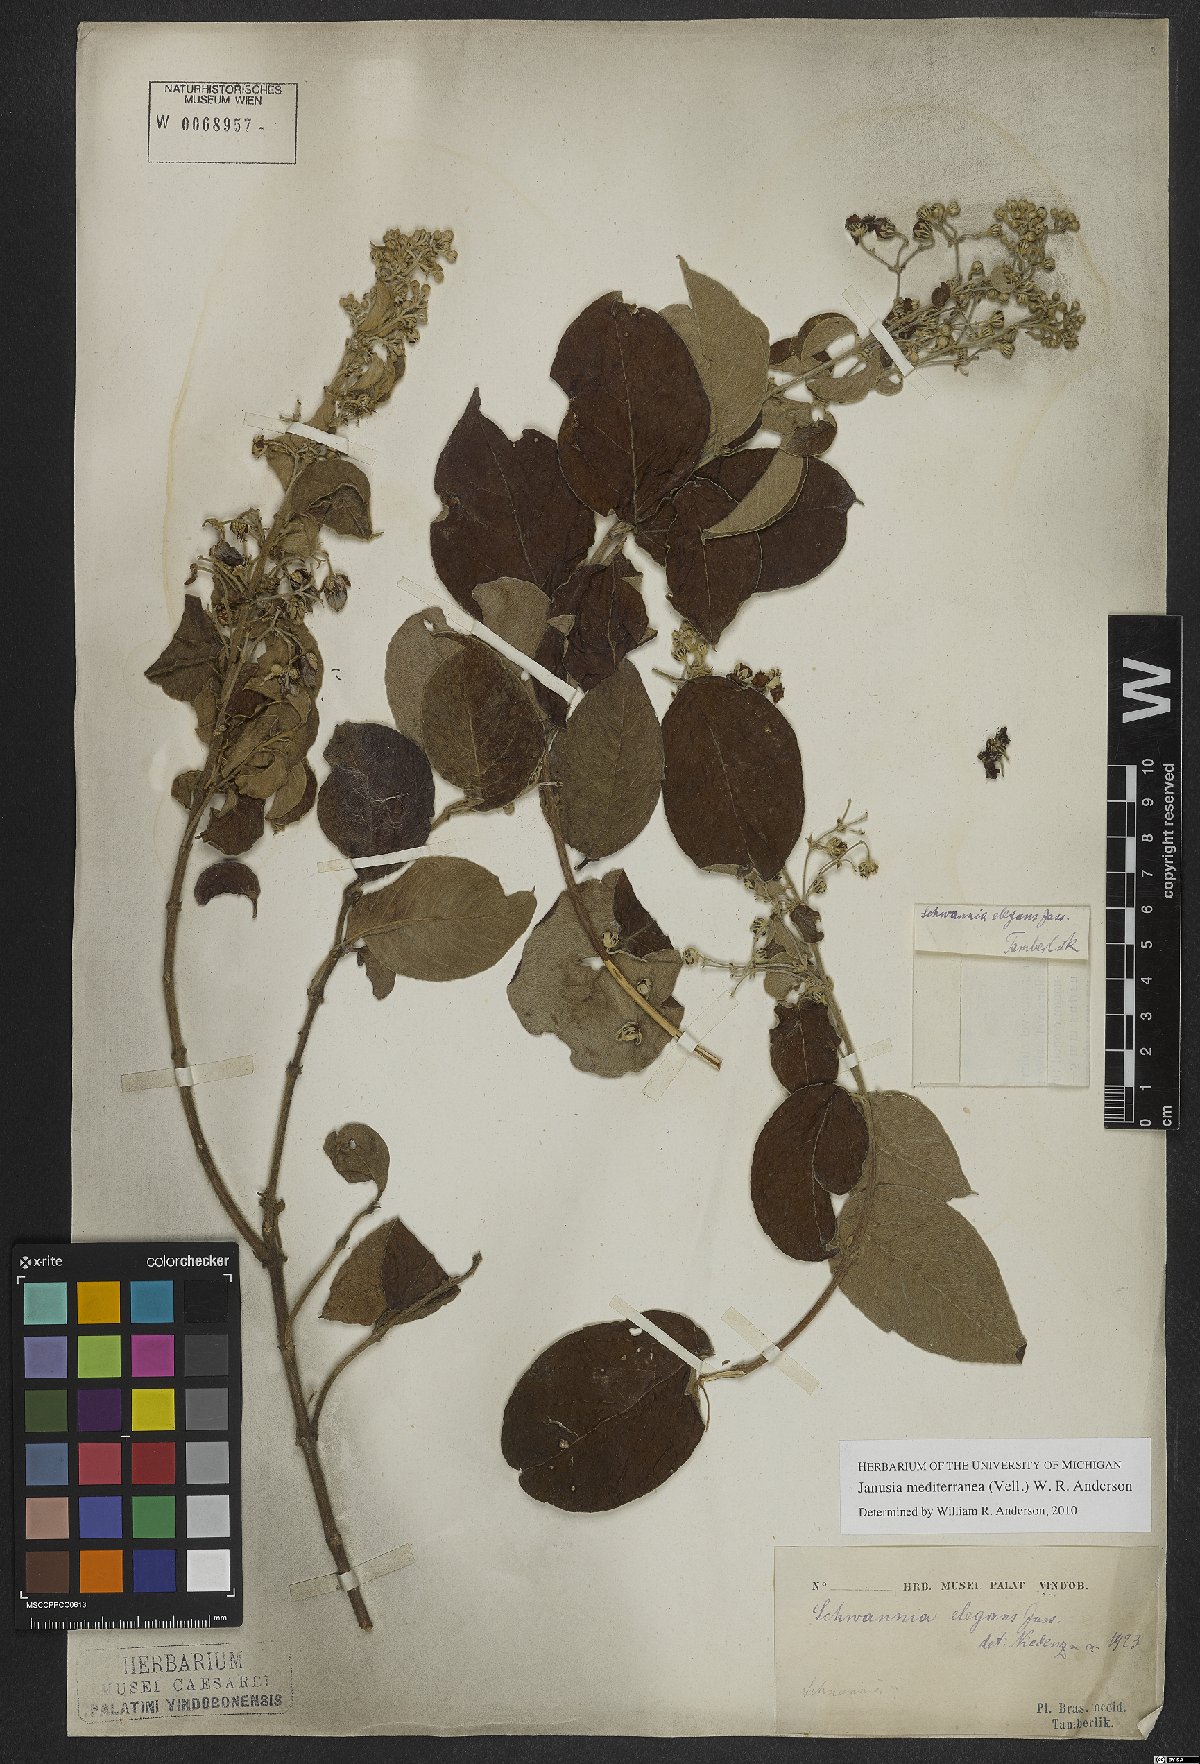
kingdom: Plantae
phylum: Tracheophyta
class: Magnoliopsida
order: Malpighiales
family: Malpighiaceae
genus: Janusia
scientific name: Janusia mediterranea
